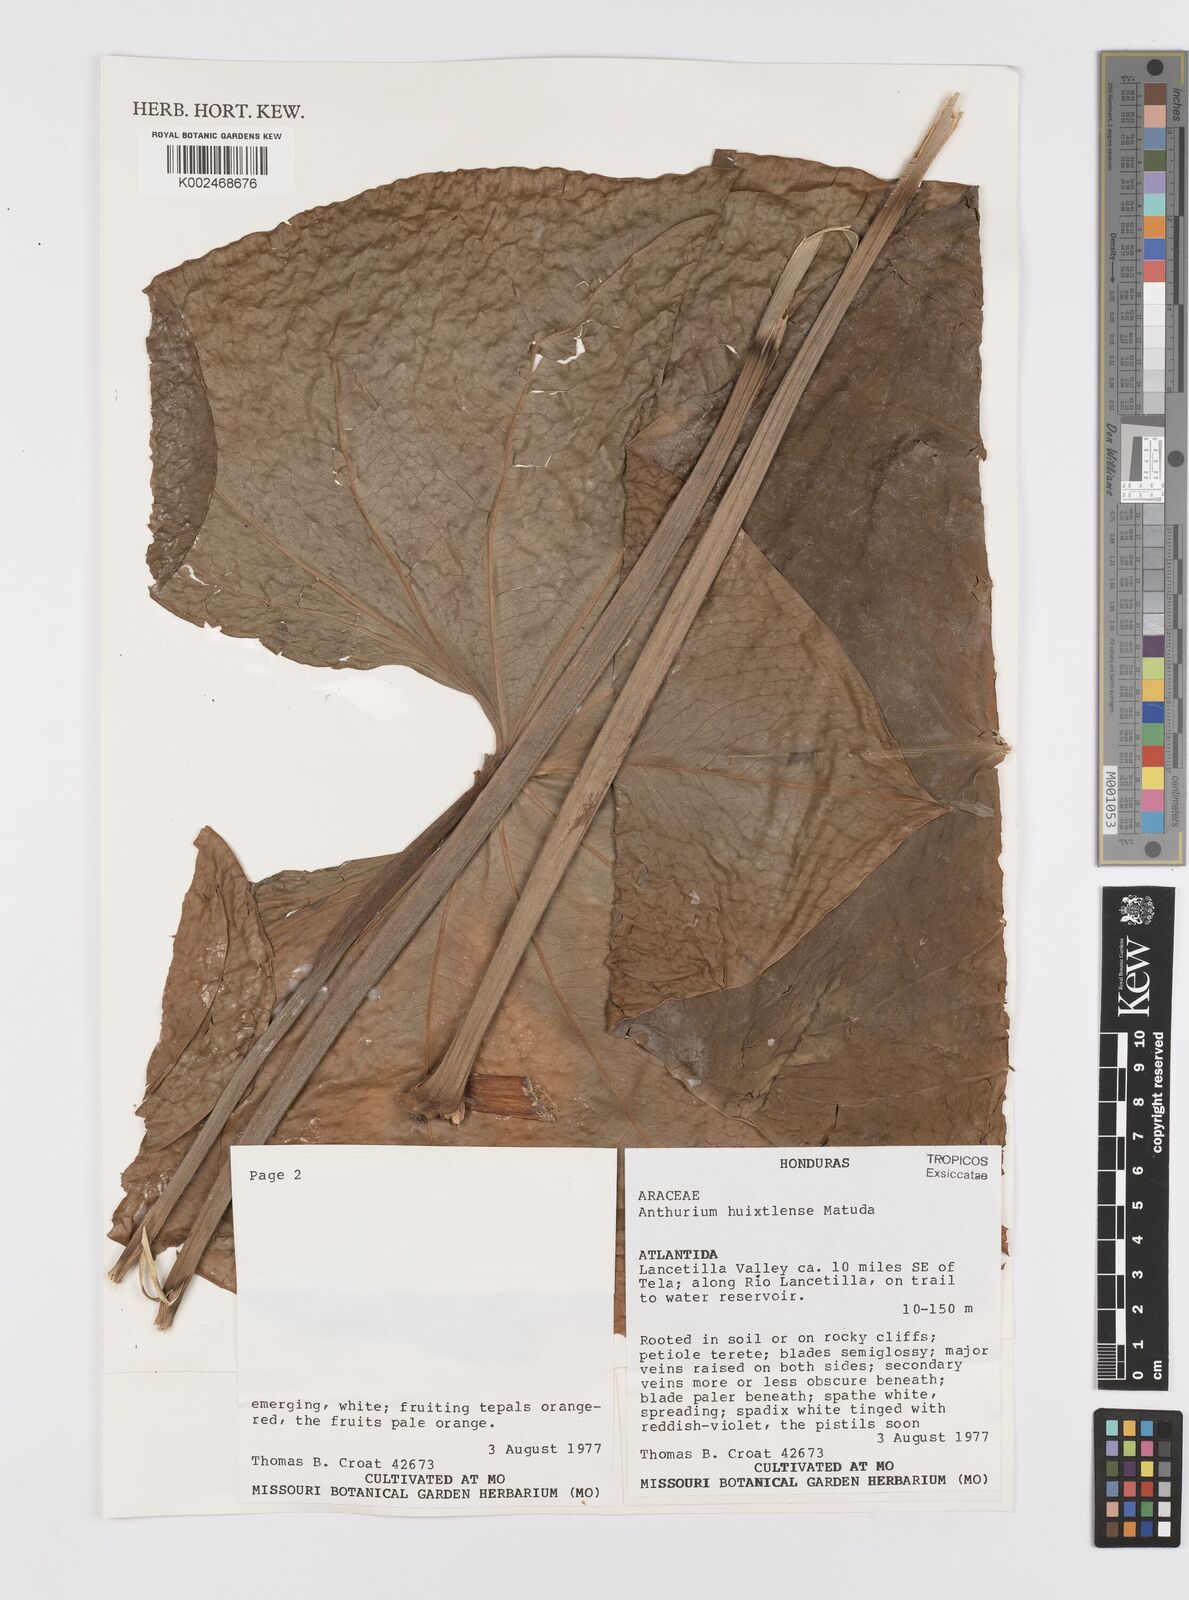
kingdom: Plantae
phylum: Tracheophyta
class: Liliopsida
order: Alismatales
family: Araceae
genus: Anthurium
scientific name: Anthurium huixtlense
